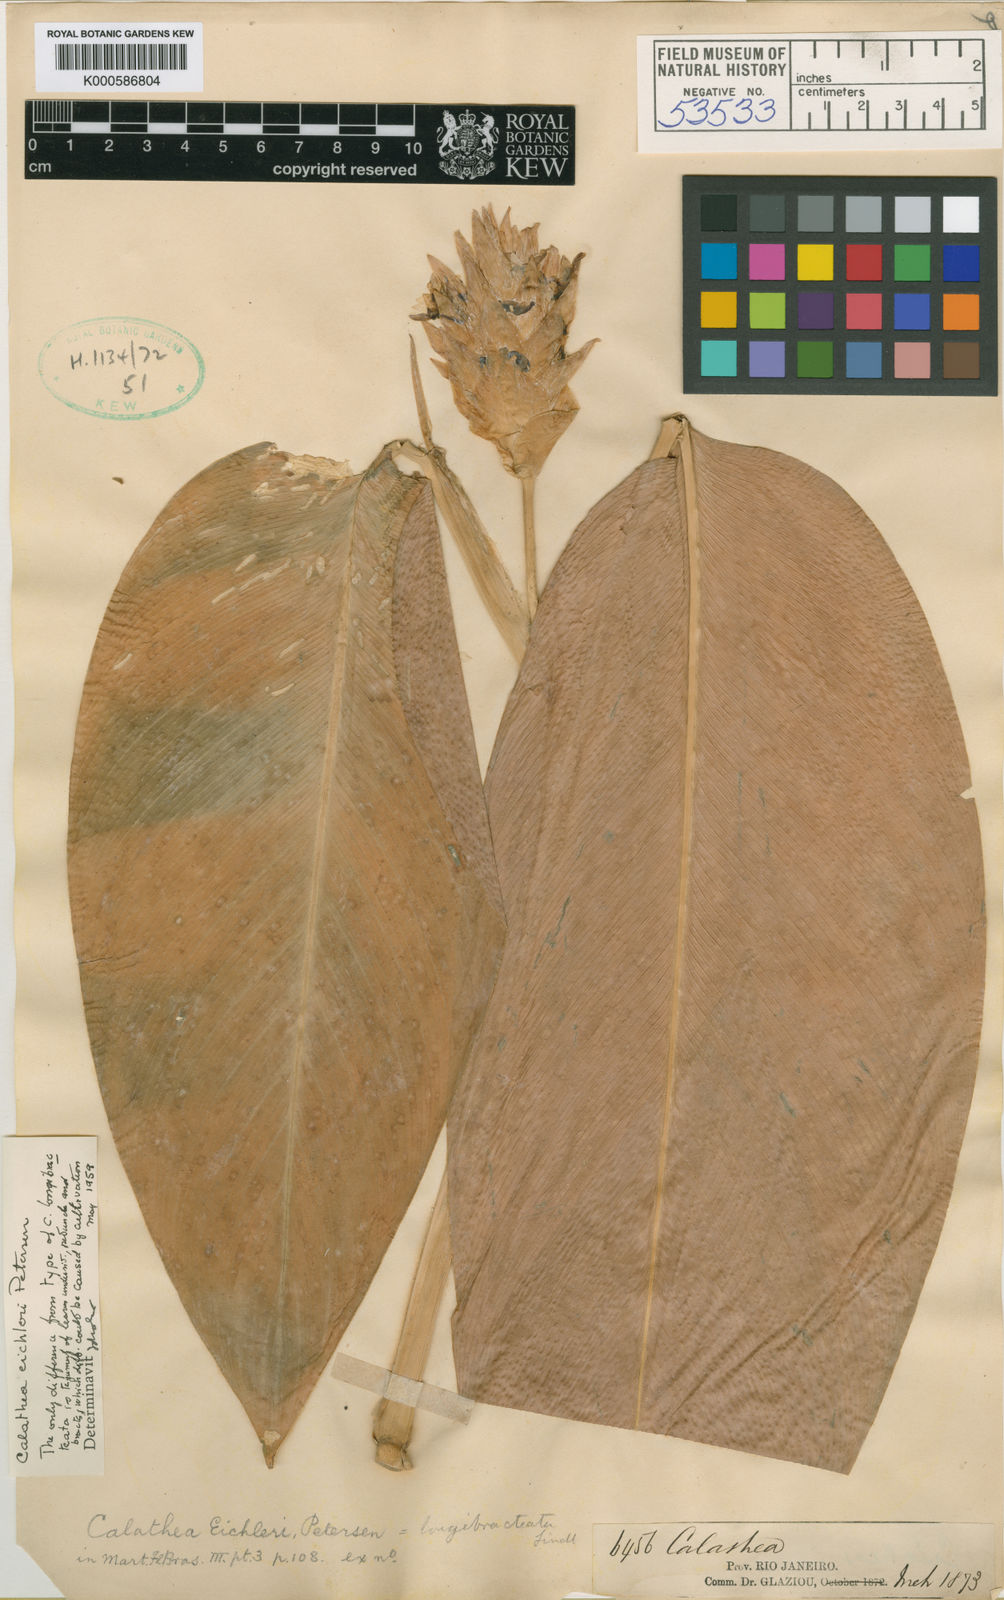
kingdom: Plantae
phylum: Tracheophyta
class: Liliopsida
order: Zingiberales
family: Marantaceae
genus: Goeppertia
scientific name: Goeppertia eichleri
